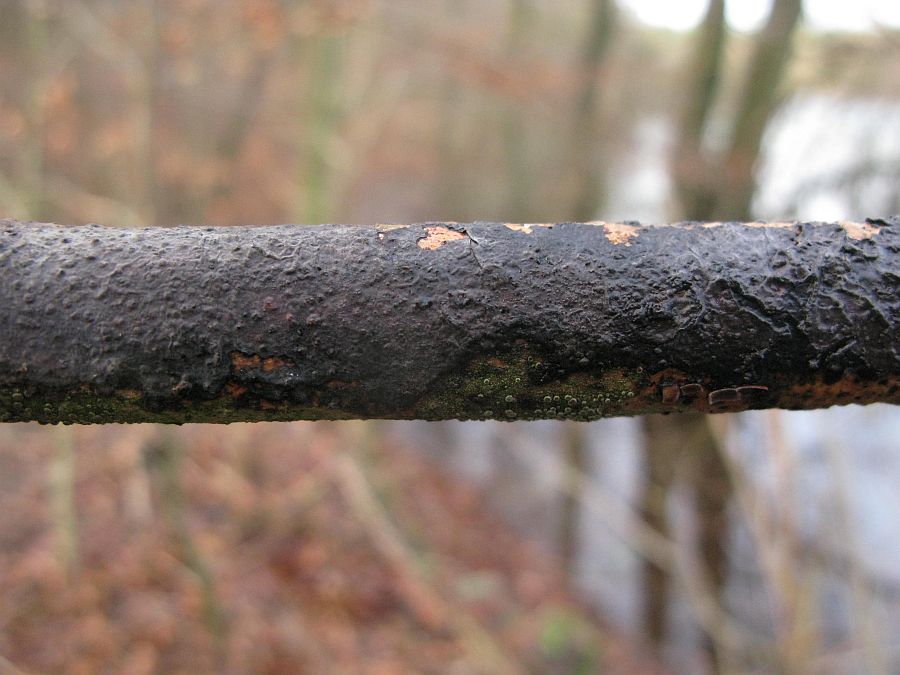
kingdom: Fungi
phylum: Basidiomycota
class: Agaricomycetes
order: Russulales
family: Peniophoraceae
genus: Peniophora
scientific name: Peniophora limitata
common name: mørkrandet voksskind
